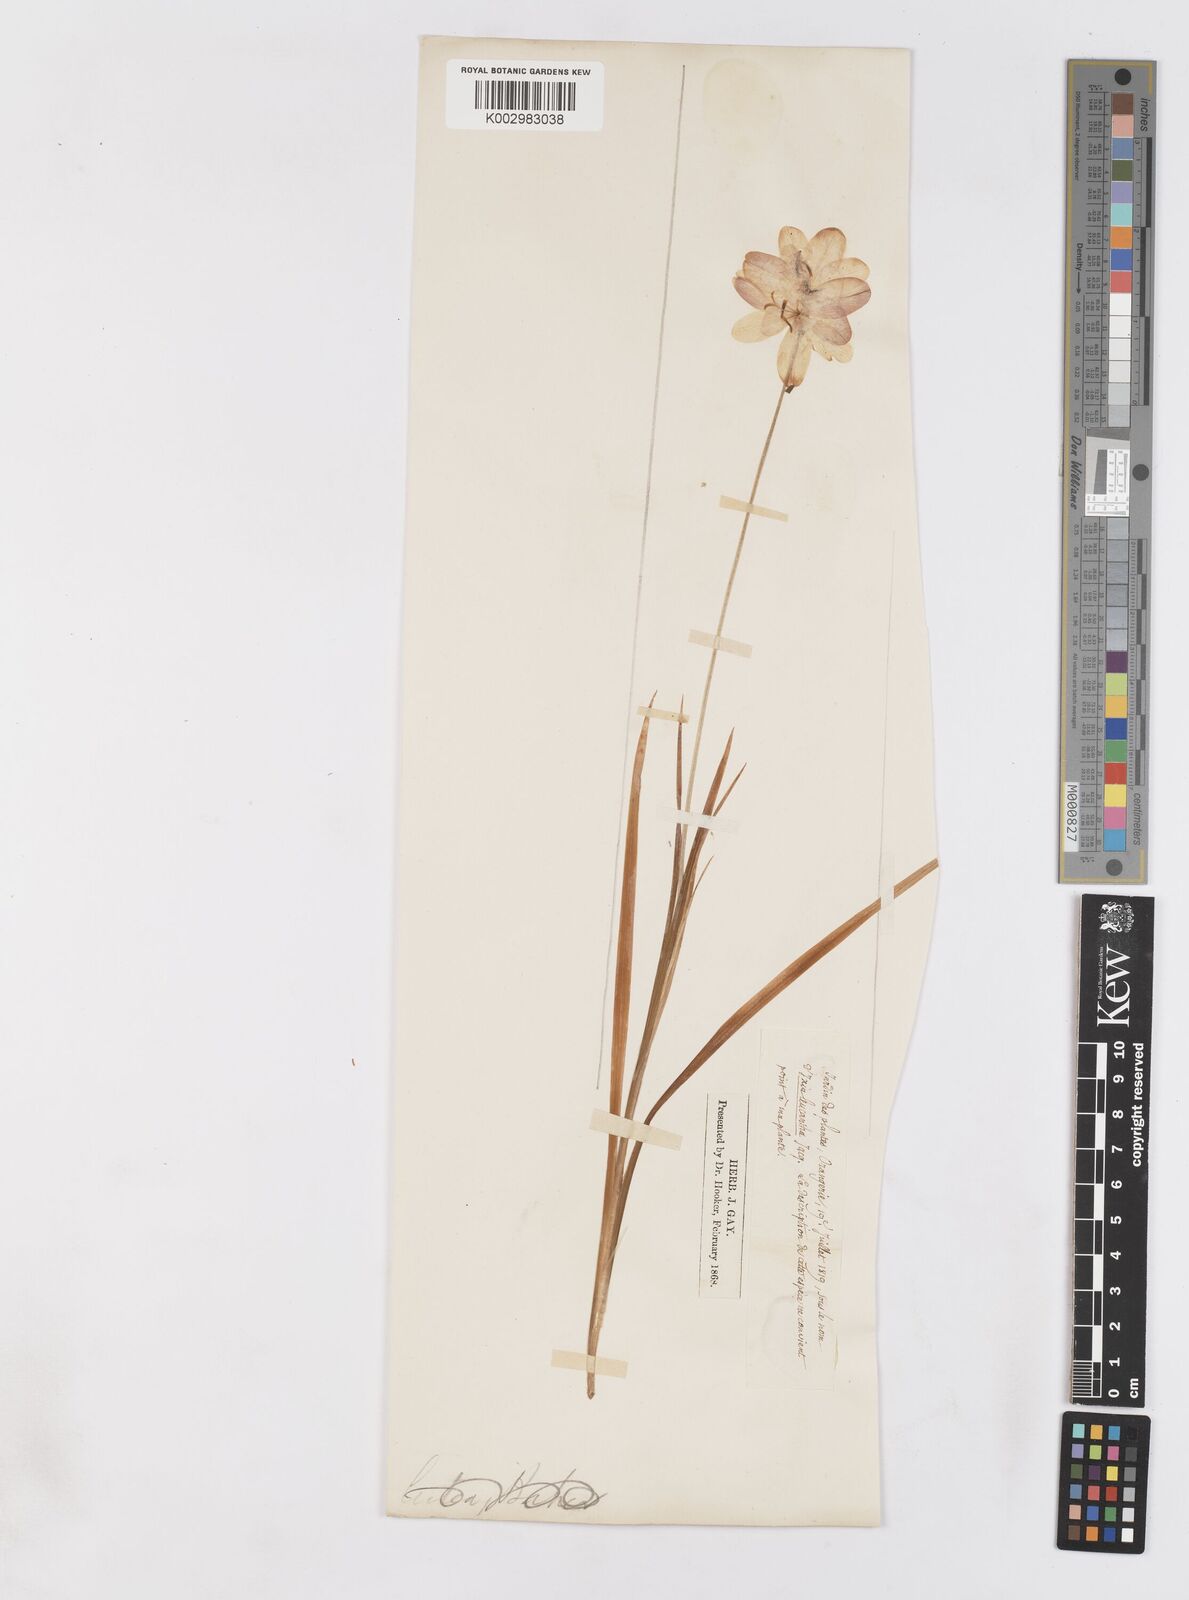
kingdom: Plantae
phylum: Tracheophyta
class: Liliopsida
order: Asparagales
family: Iridaceae
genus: Ixia
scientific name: Ixia
